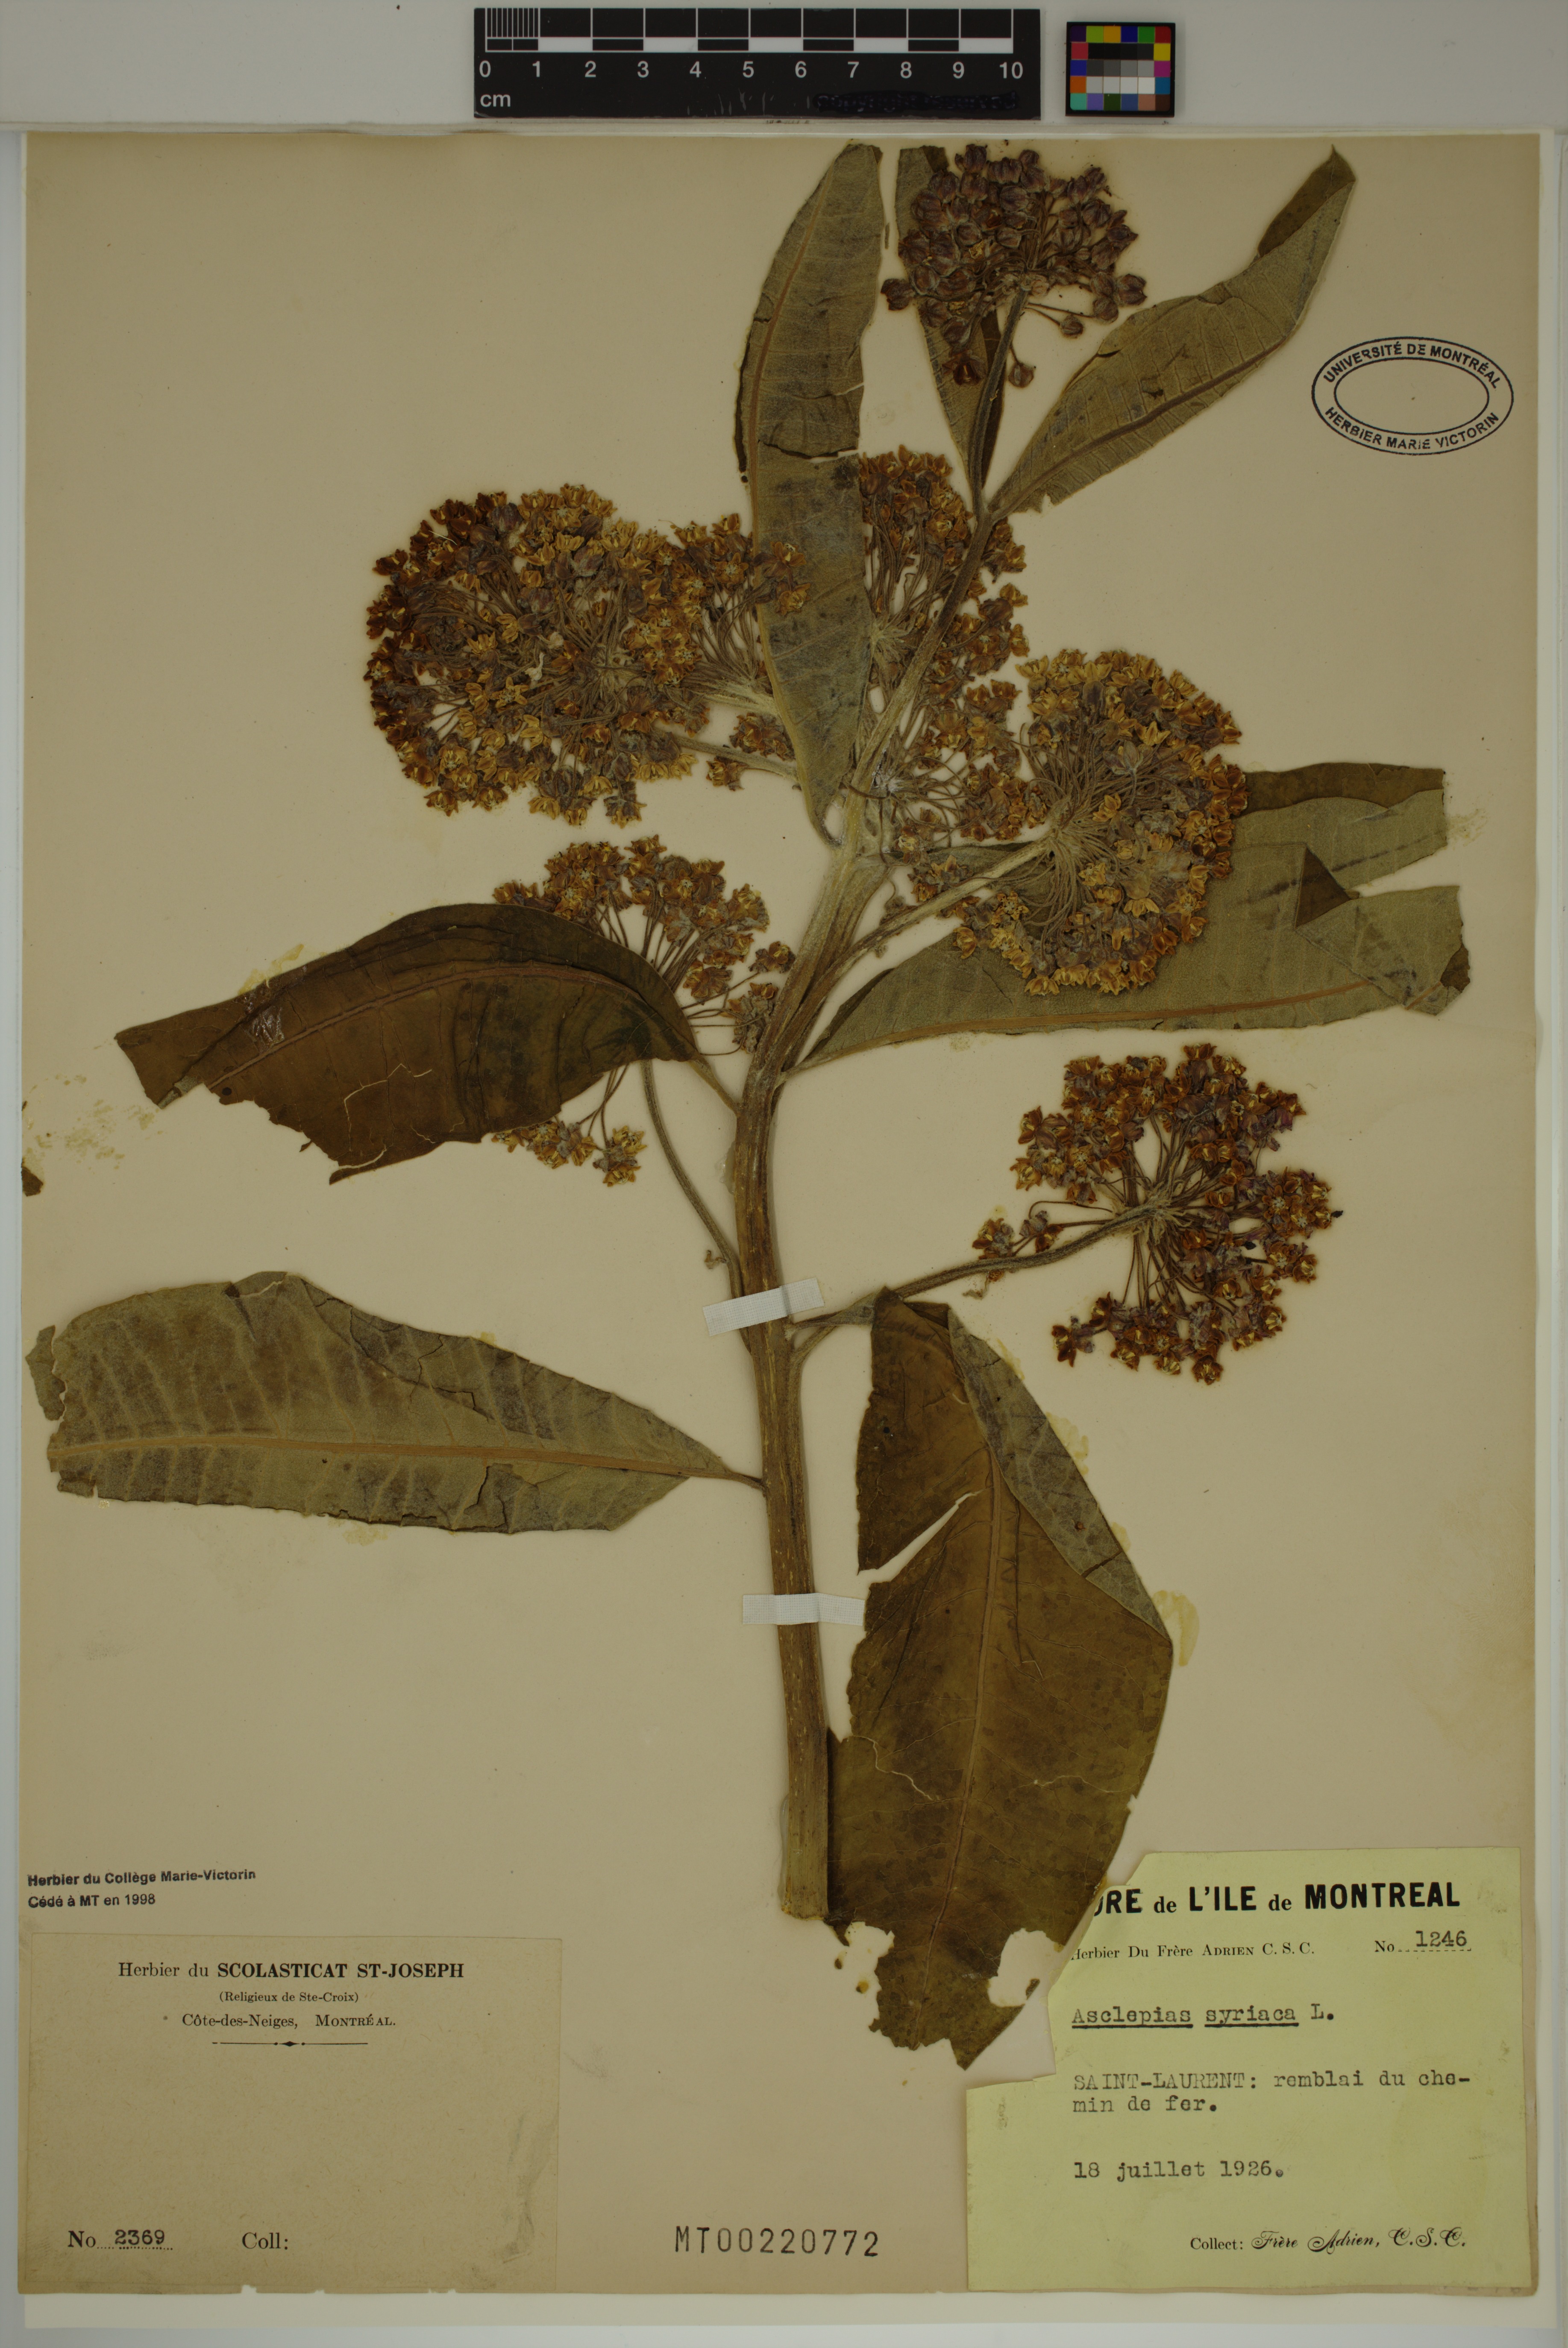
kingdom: Plantae
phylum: Tracheophyta
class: Magnoliopsida
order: Gentianales
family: Apocynaceae
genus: Asclepias
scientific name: Asclepias syriaca
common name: Common milkweed
